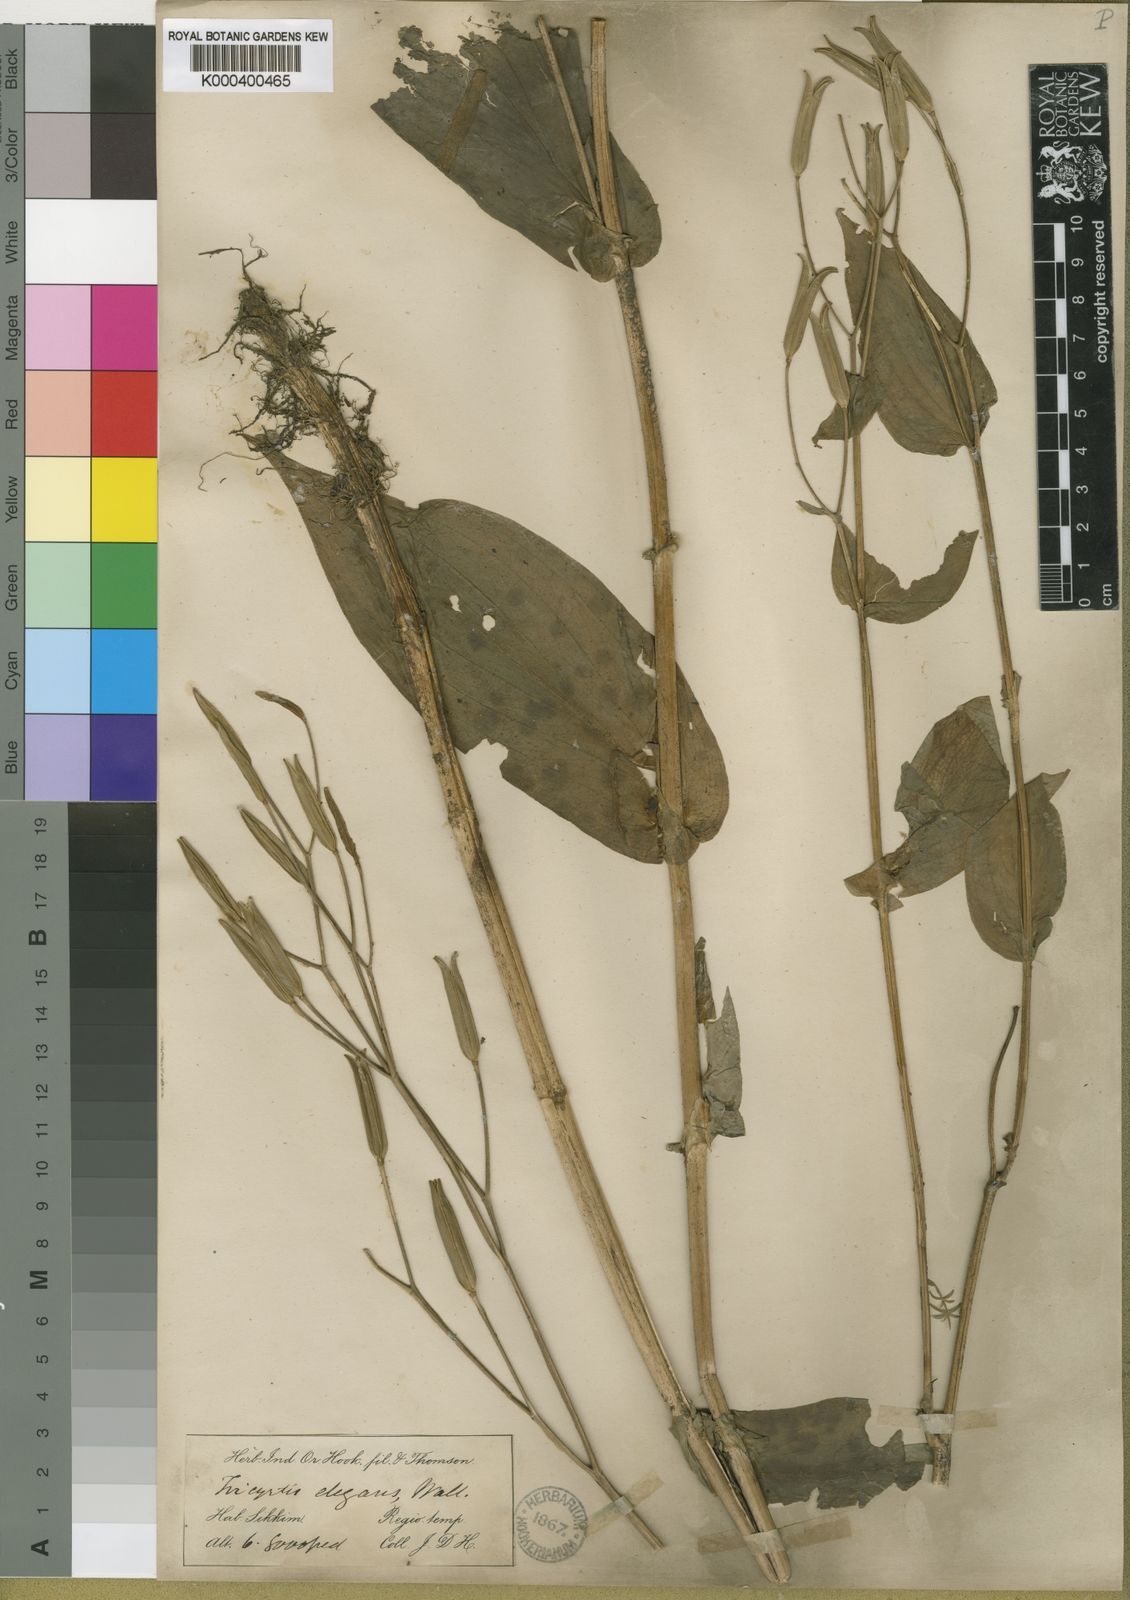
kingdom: Plantae
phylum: Tracheophyta
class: Liliopsida
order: Liliales
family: Liliaceae
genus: Tricyrtis
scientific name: Tricyrtis maculata
